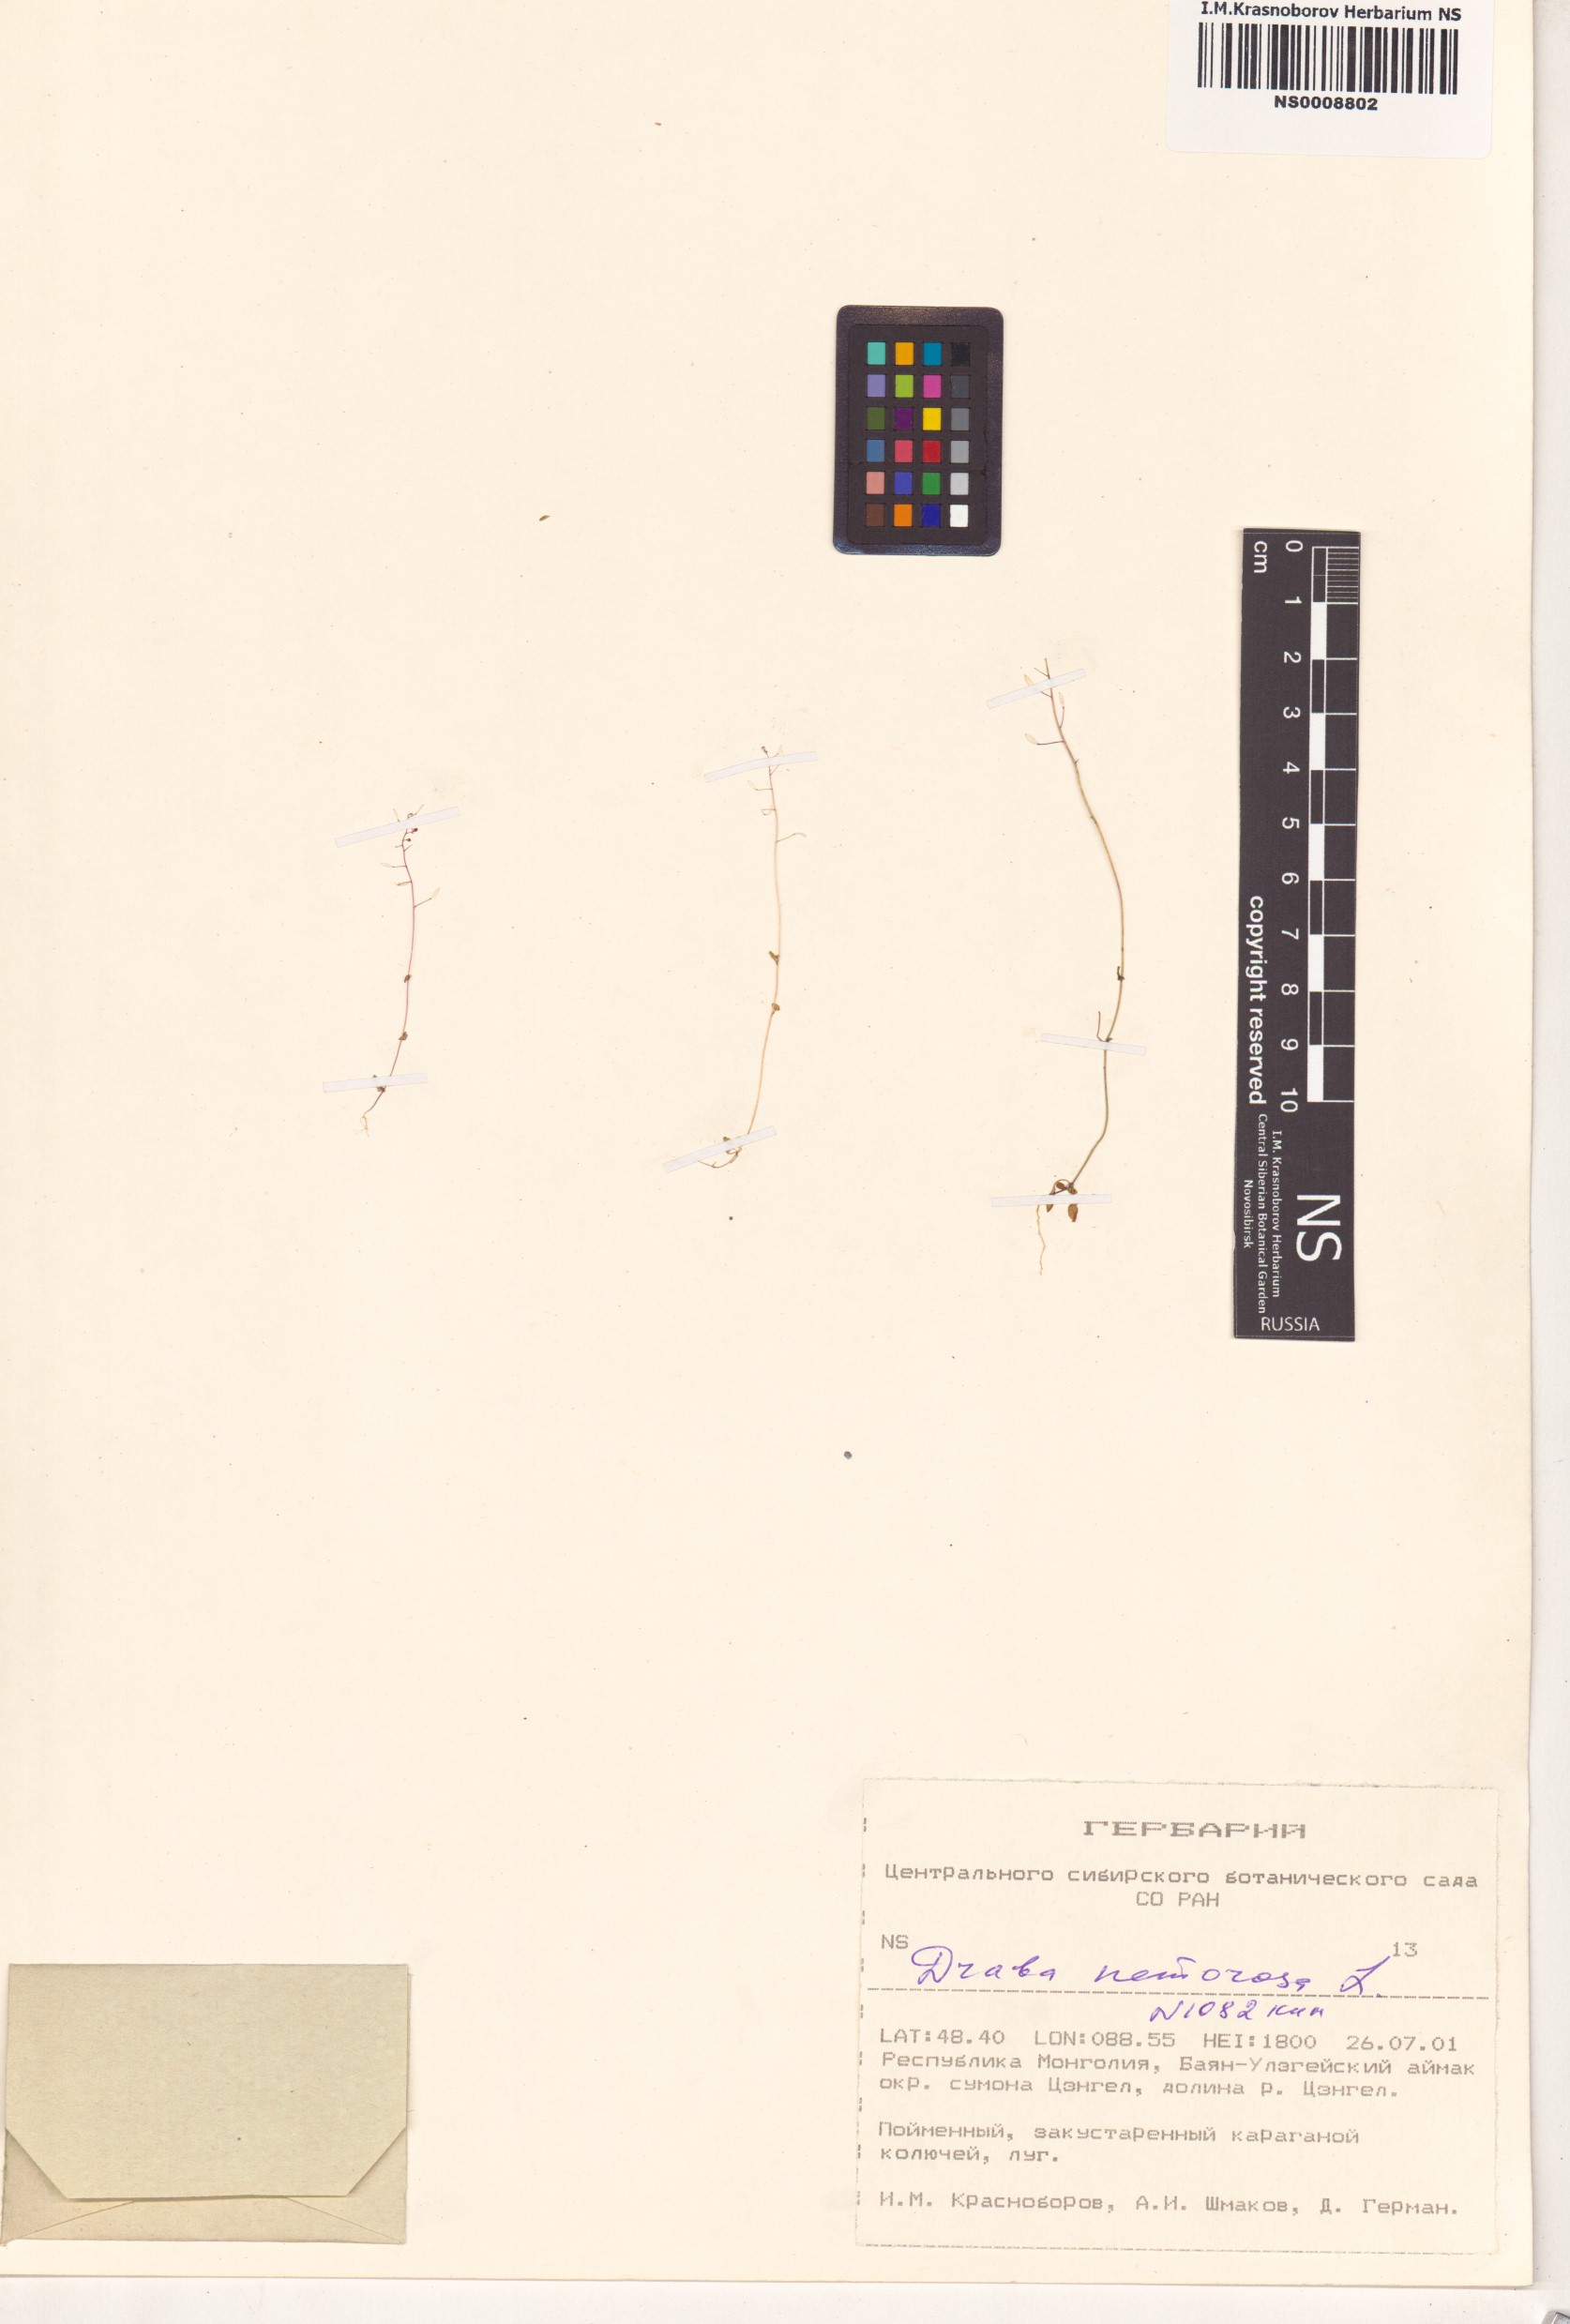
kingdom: Plantae
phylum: Tracheophyta
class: Magnoliopsida
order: Brassicales
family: Brassicaceae
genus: Draba
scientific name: Draba nemorosa
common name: Wood whitlow-grass
